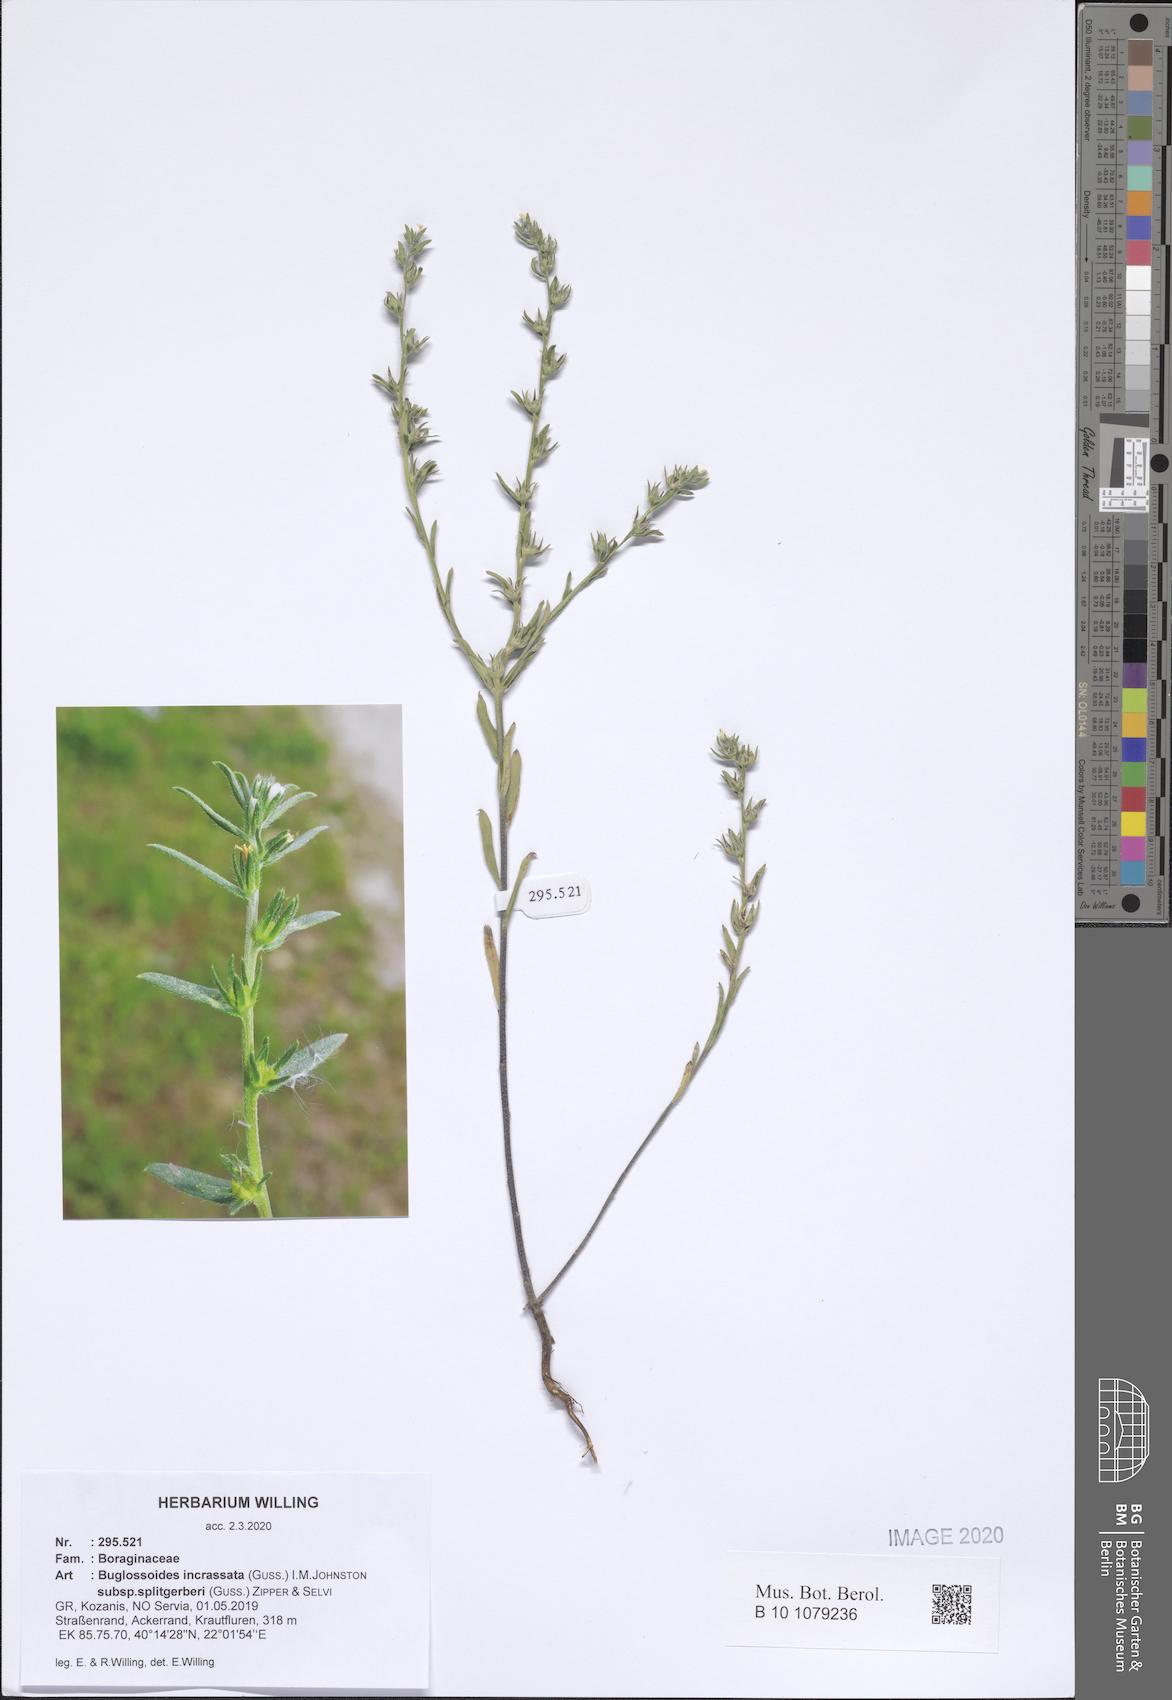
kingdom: Plantae
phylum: Tracheophyta
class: Magnoliopsida
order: Boraginales
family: Boraginaceae
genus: Buglossoides
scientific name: Buglossoides incrassata
